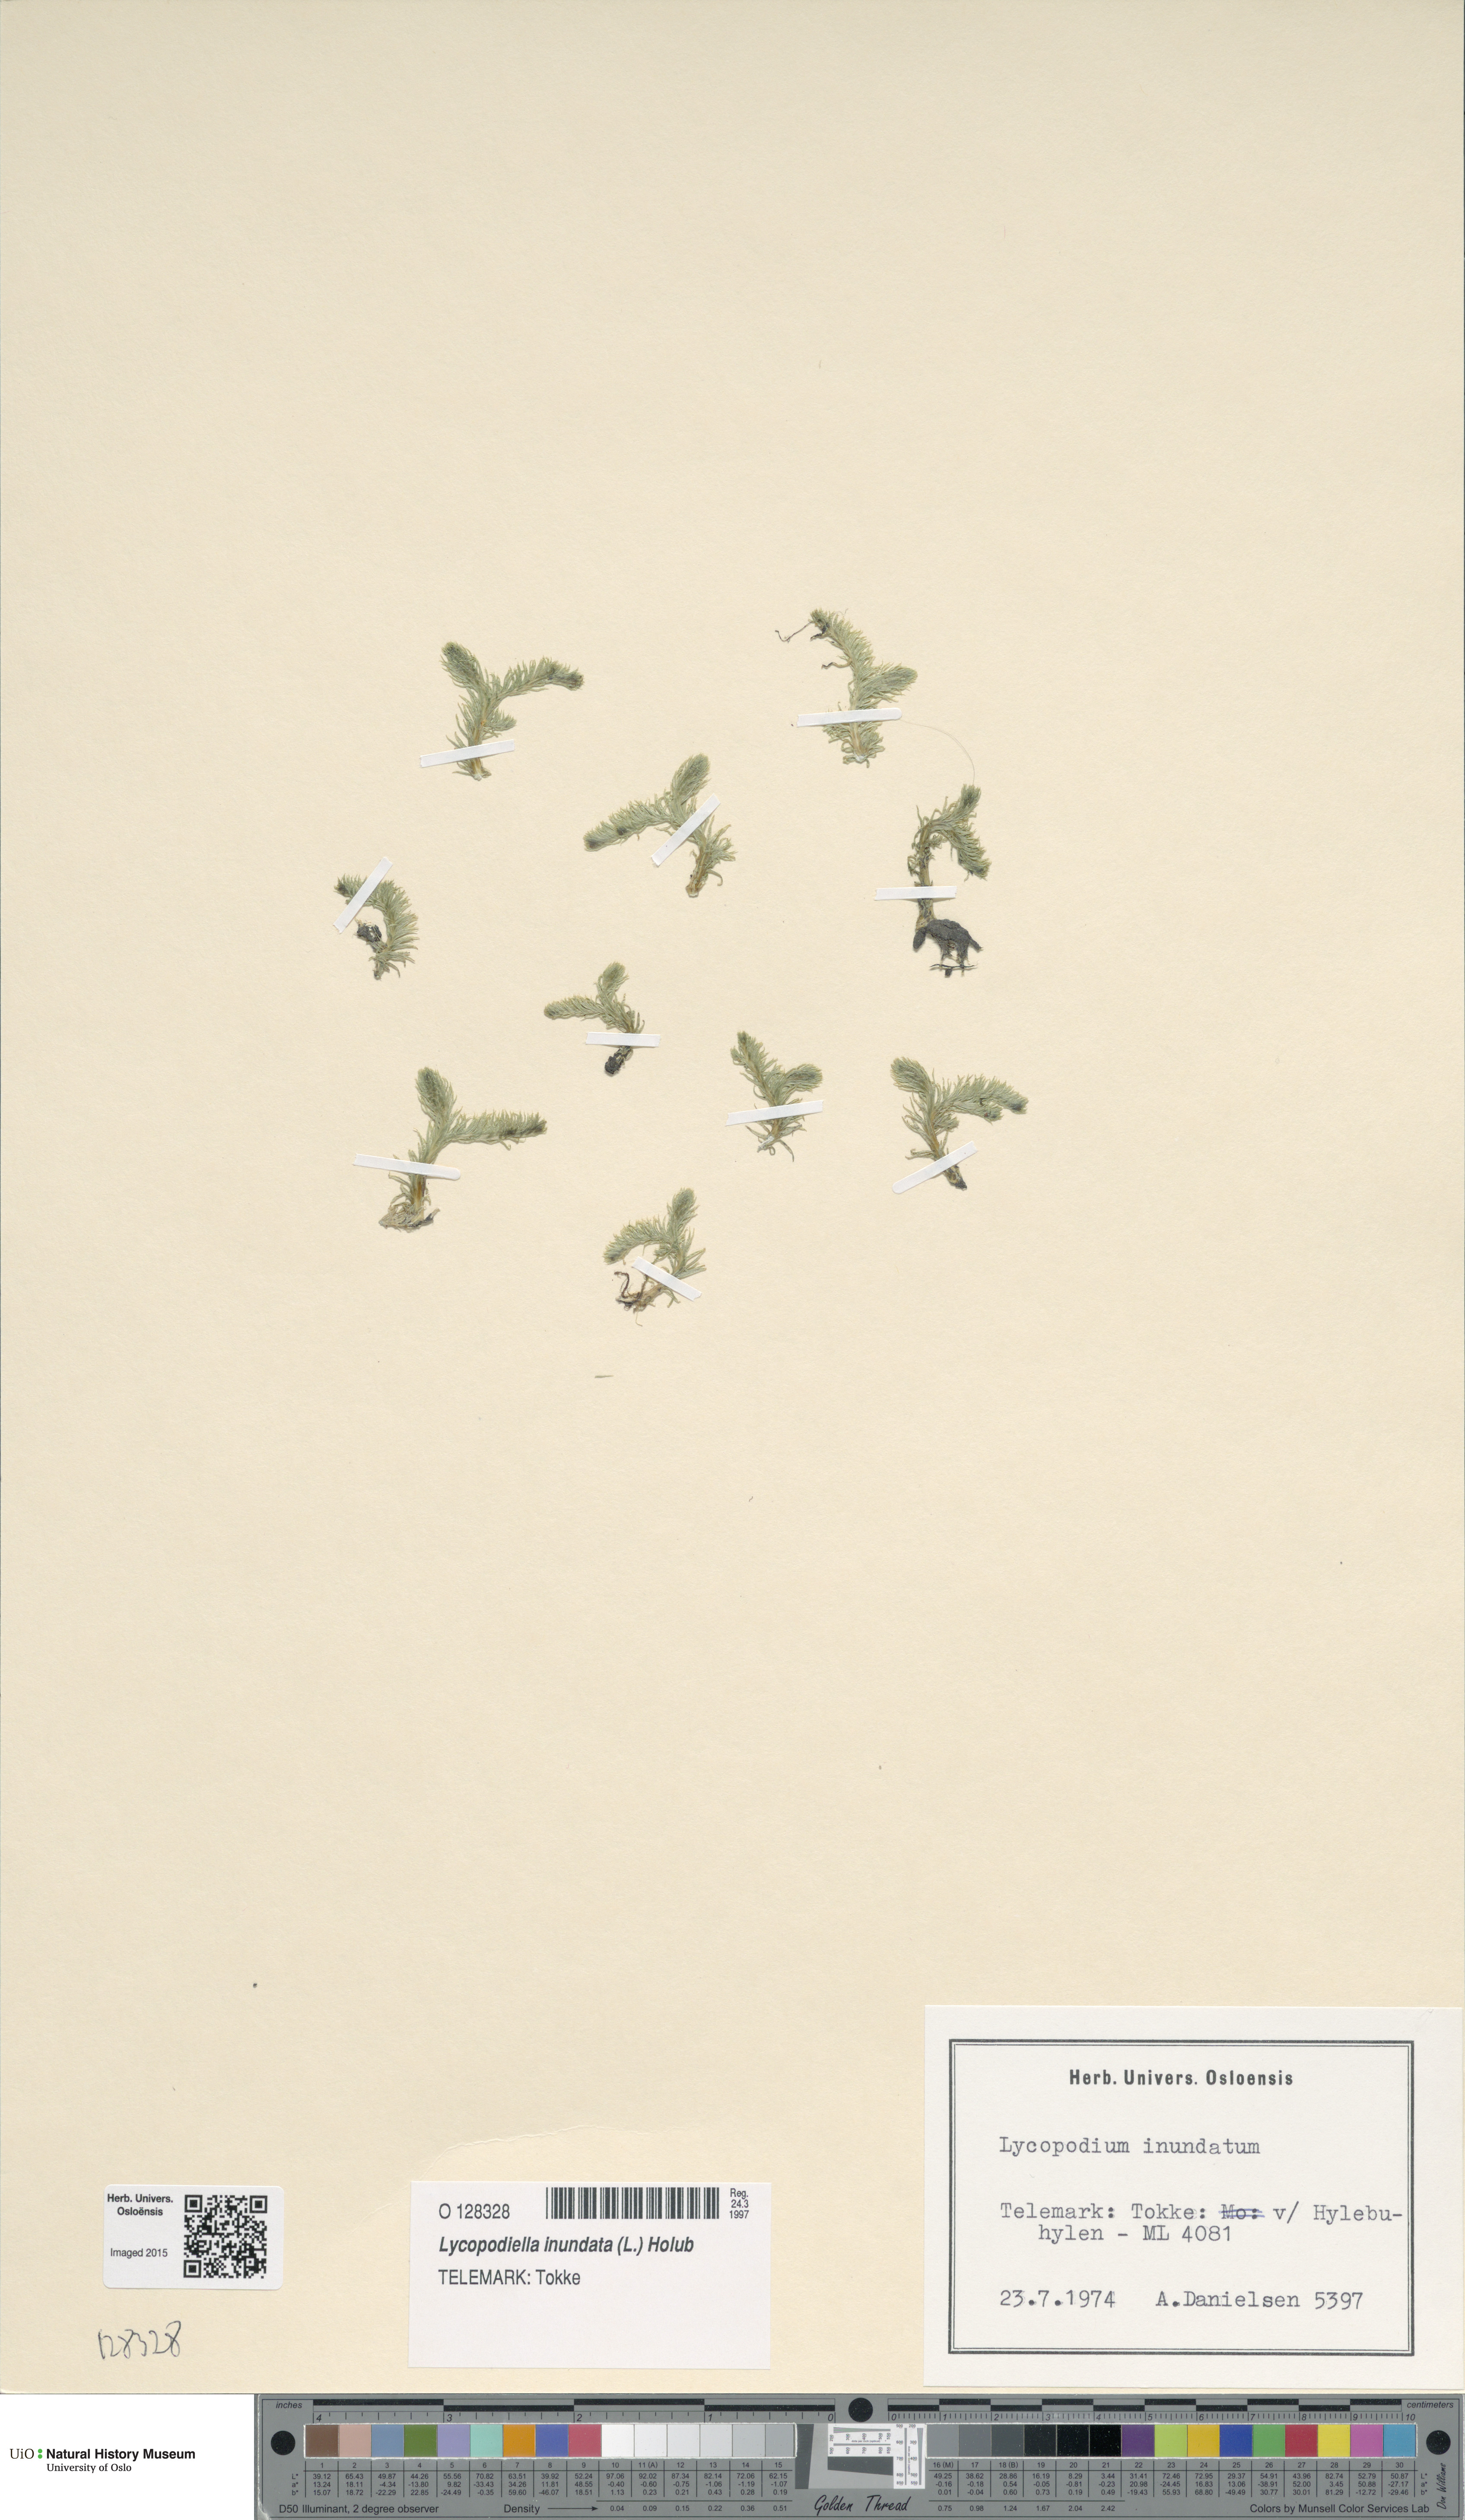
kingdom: Plantae
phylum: Tracheophyta
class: Lycopodiopsida
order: Lycopodiales
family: Lycopodiaceae
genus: Lycopodiella
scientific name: Lycopodiella inundata
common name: Marsh clubmoss
